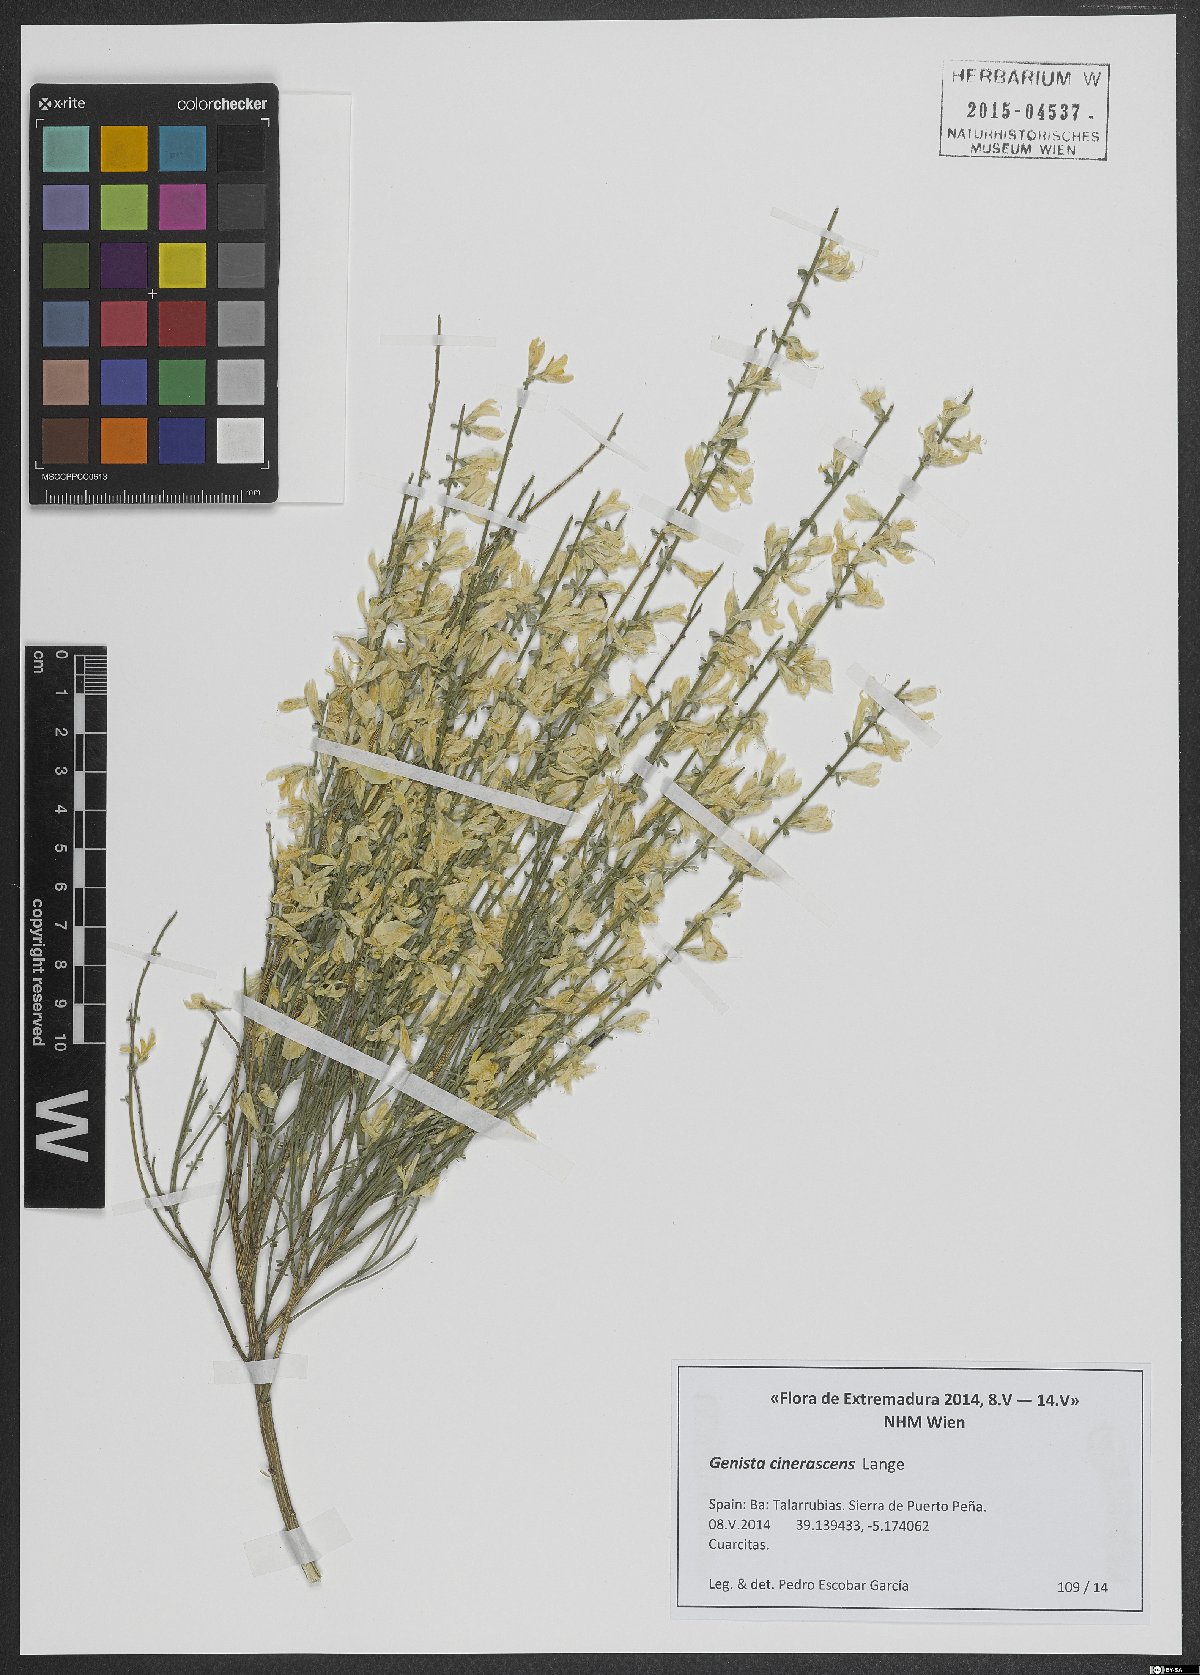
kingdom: Plantae
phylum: Tracheophyta
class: Magnoliopsida
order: Fabales
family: Fabaceae
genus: Genista
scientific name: Genista cinerascens
